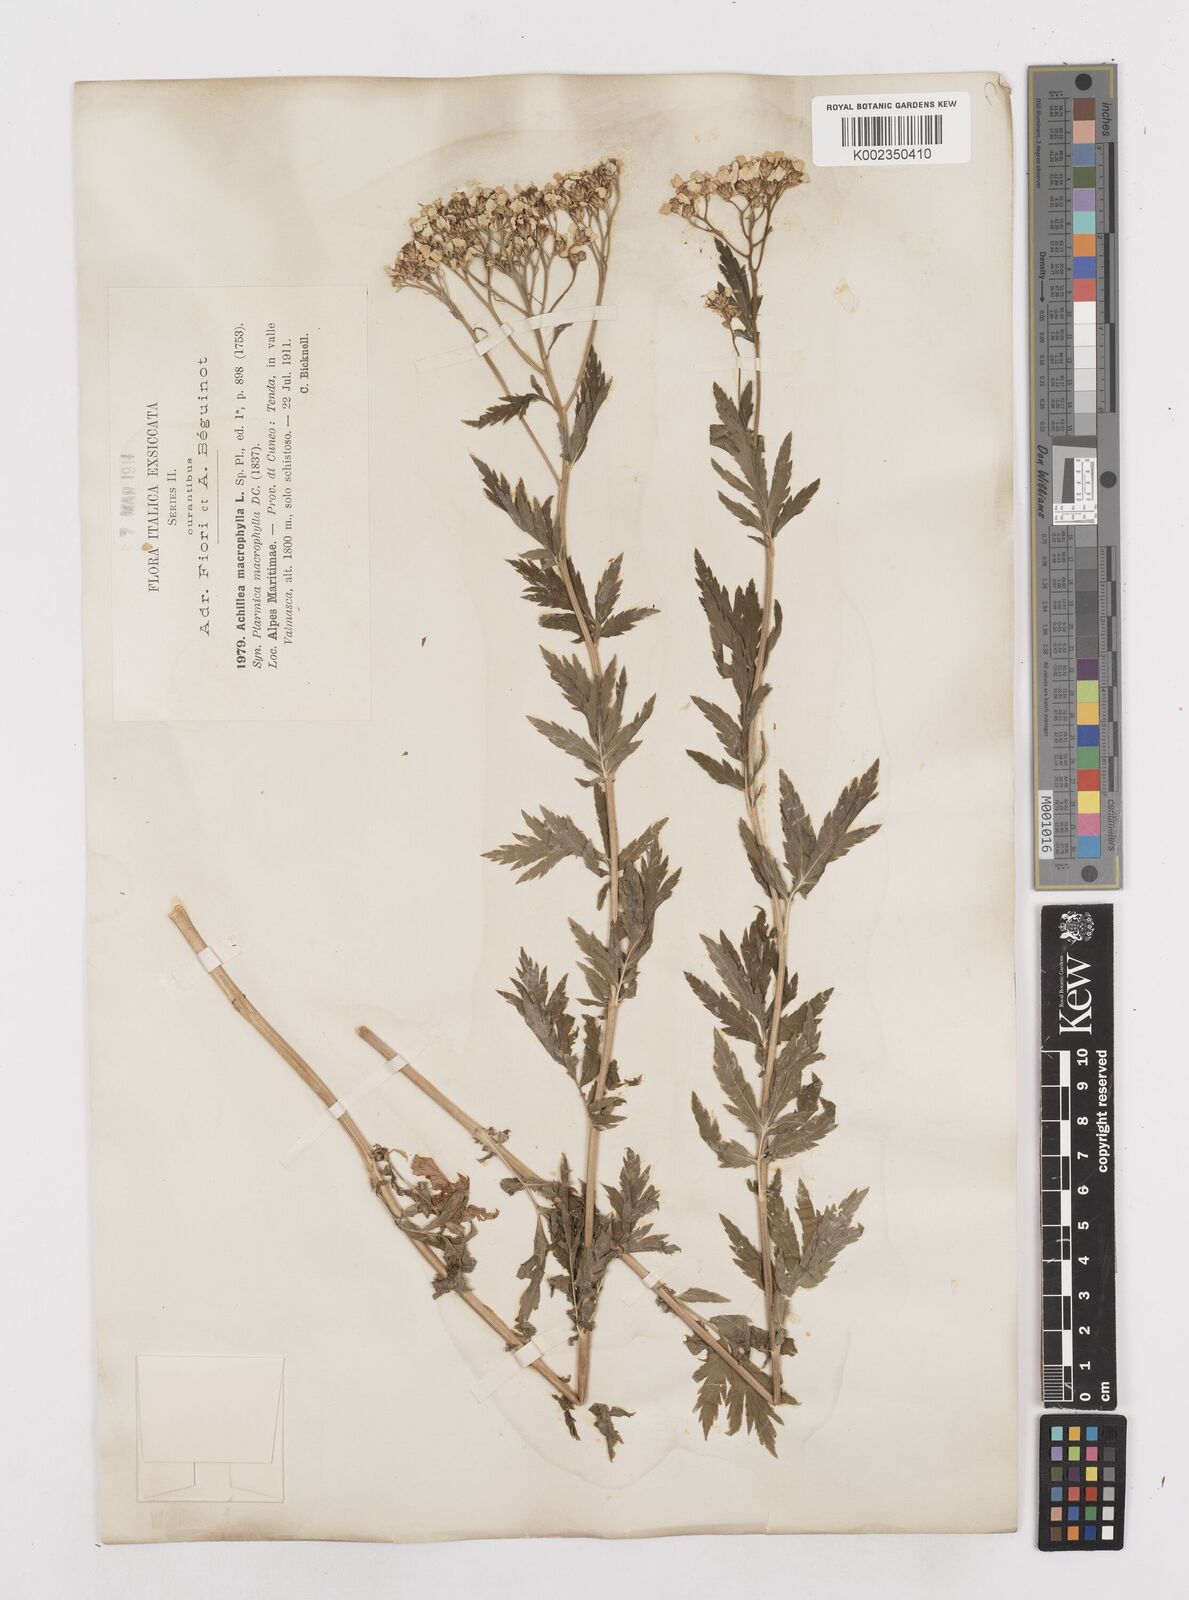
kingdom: Plantae
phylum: Tracheophyta
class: Magnoliopsida
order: Asterales
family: Asteraceae
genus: Achillea
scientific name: Achillea macrophylla
